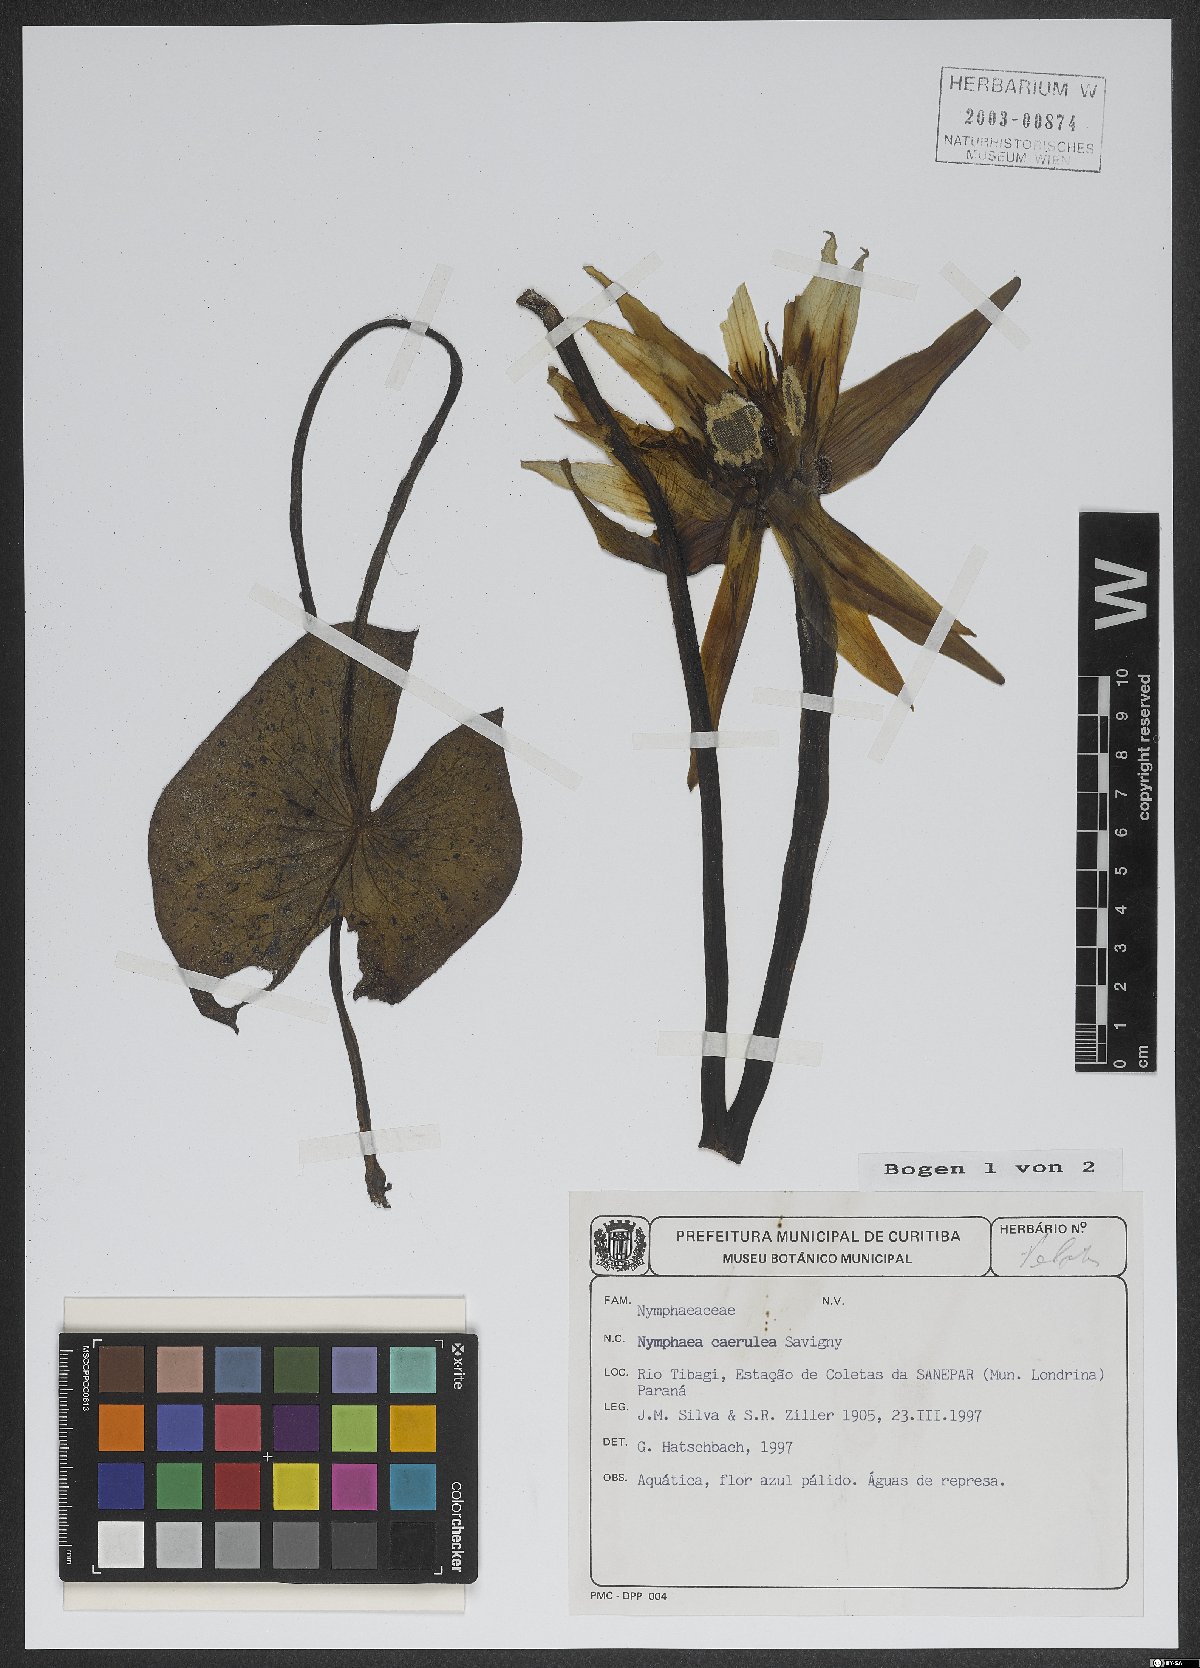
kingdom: Plantae
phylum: Tracheophyta
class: Magnoliopsida
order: Nymphaeales
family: Nymphaeaceae
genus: Nymphaea
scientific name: Nymphaea
